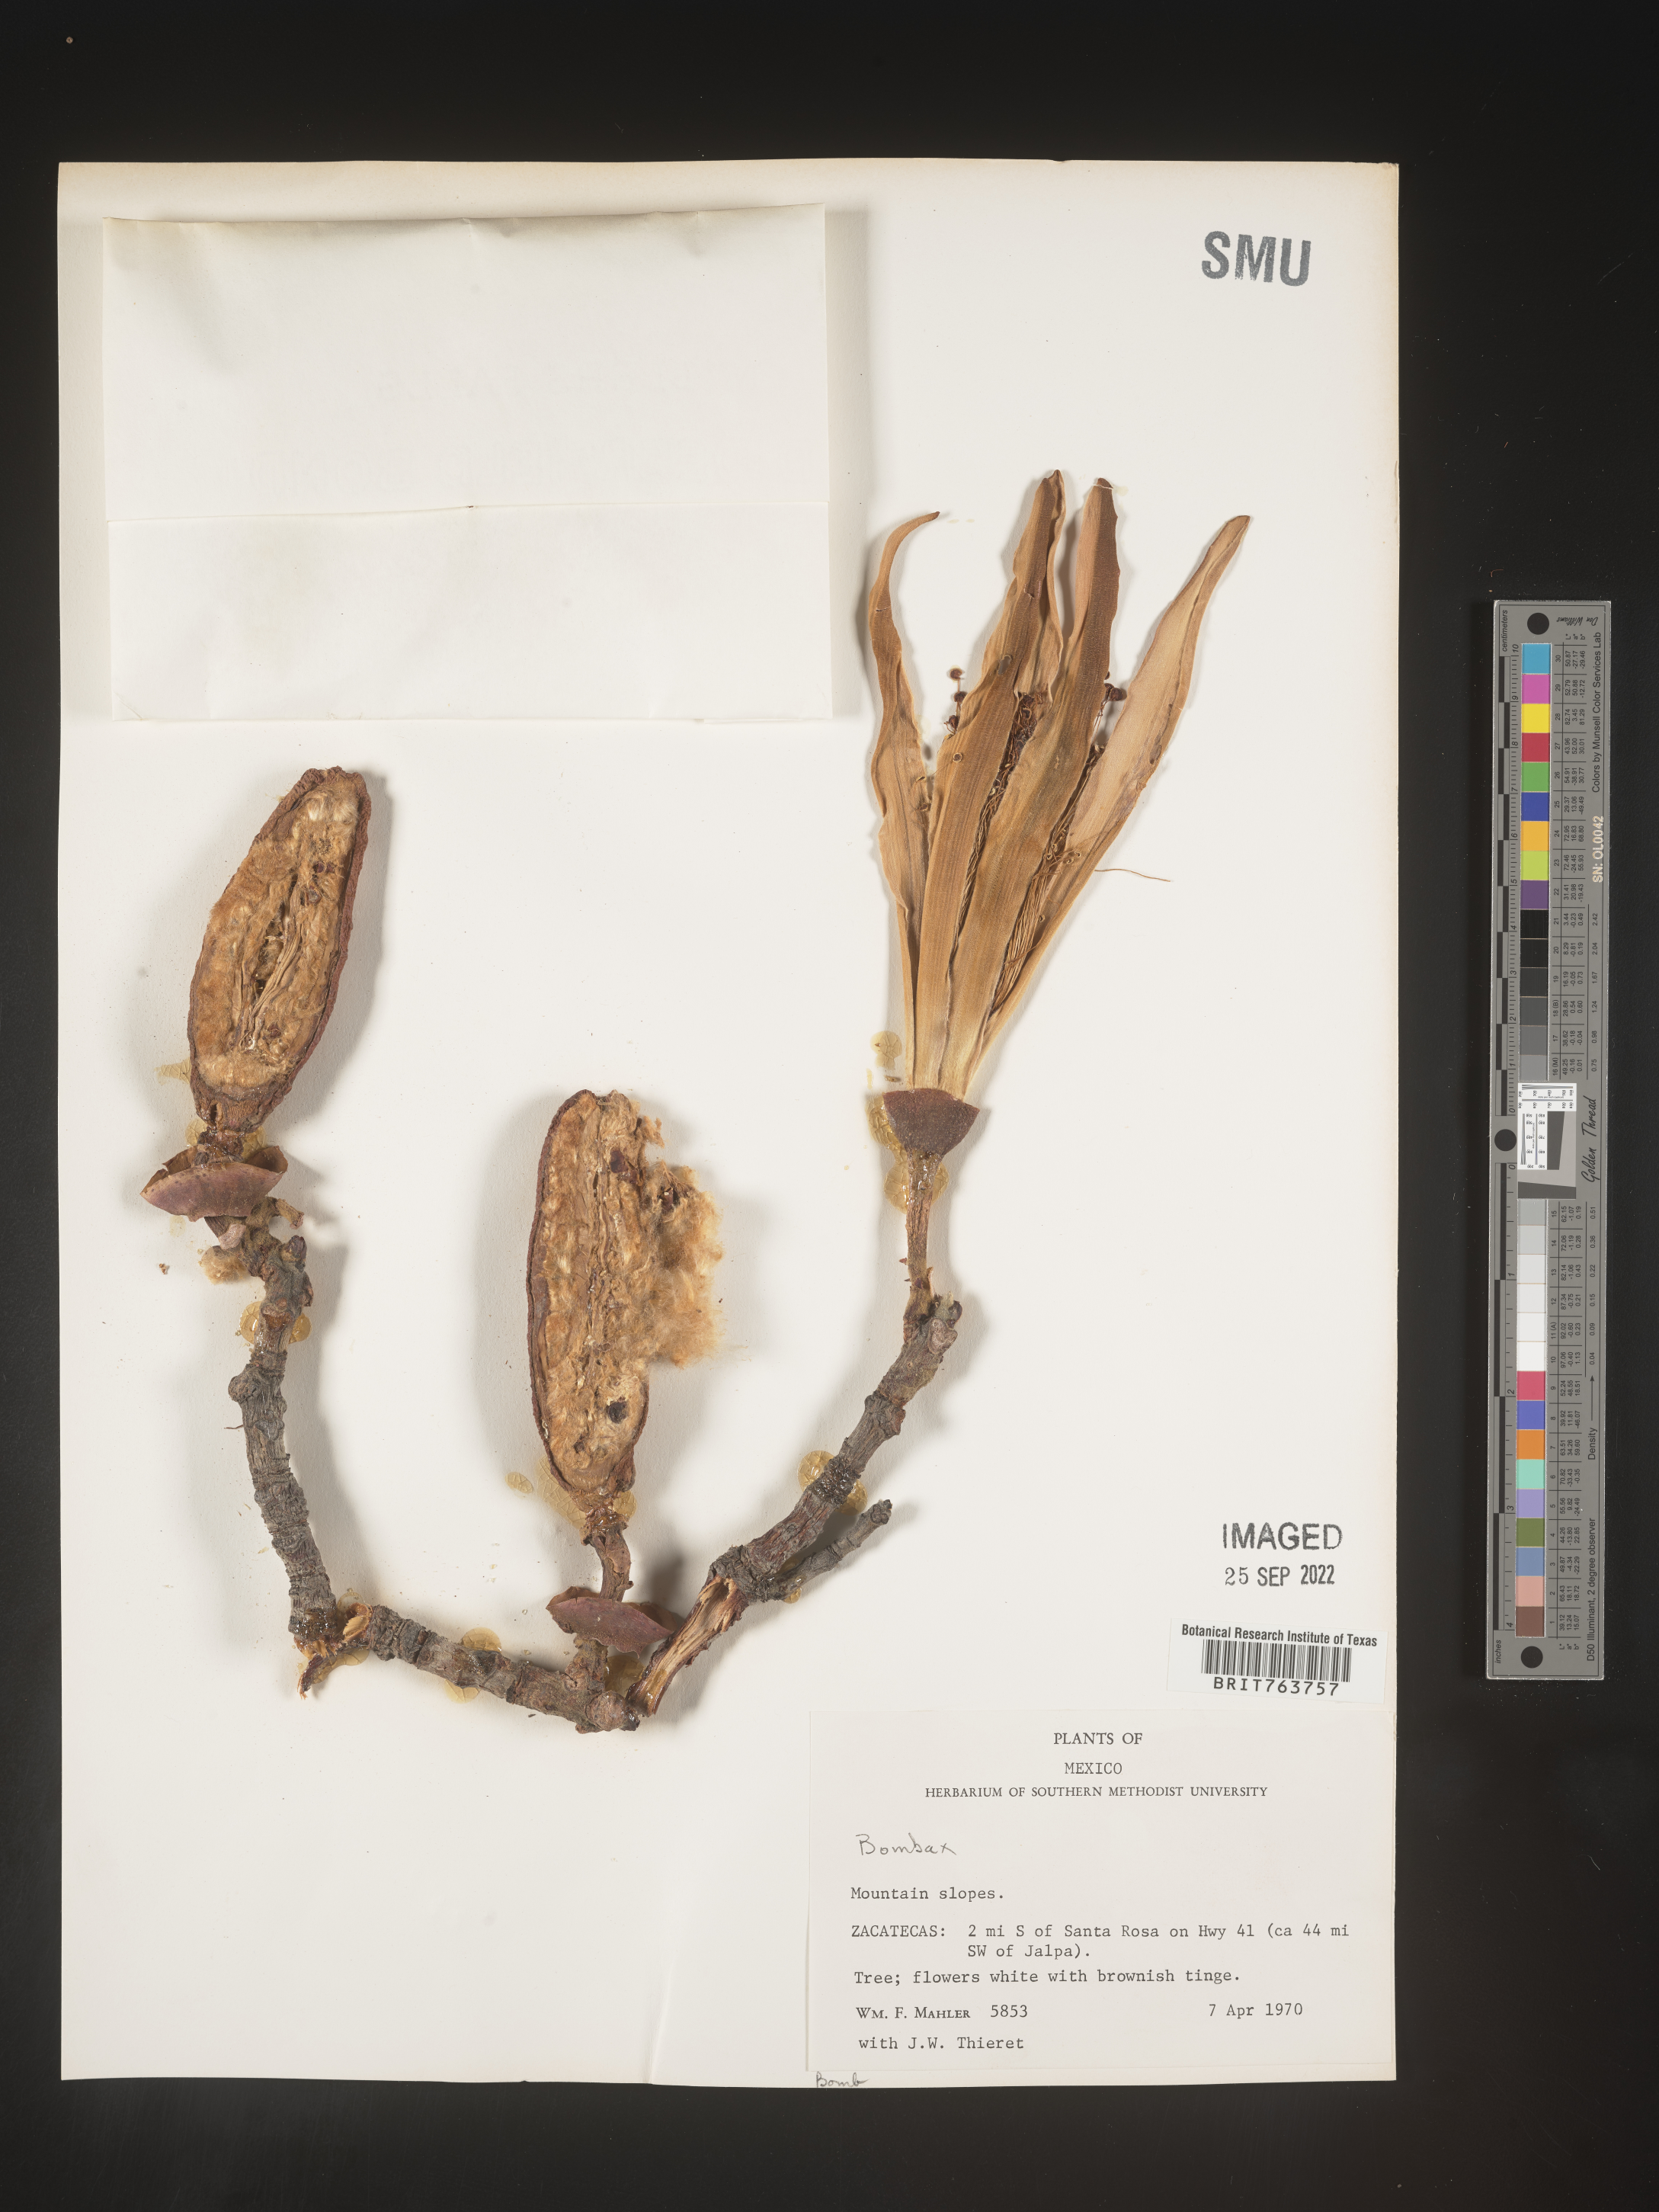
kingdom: Plantae
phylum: Tracheophyta
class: Magnoliopsida
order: Malvales
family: Malvaceae
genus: Bombax
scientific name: Bombax
